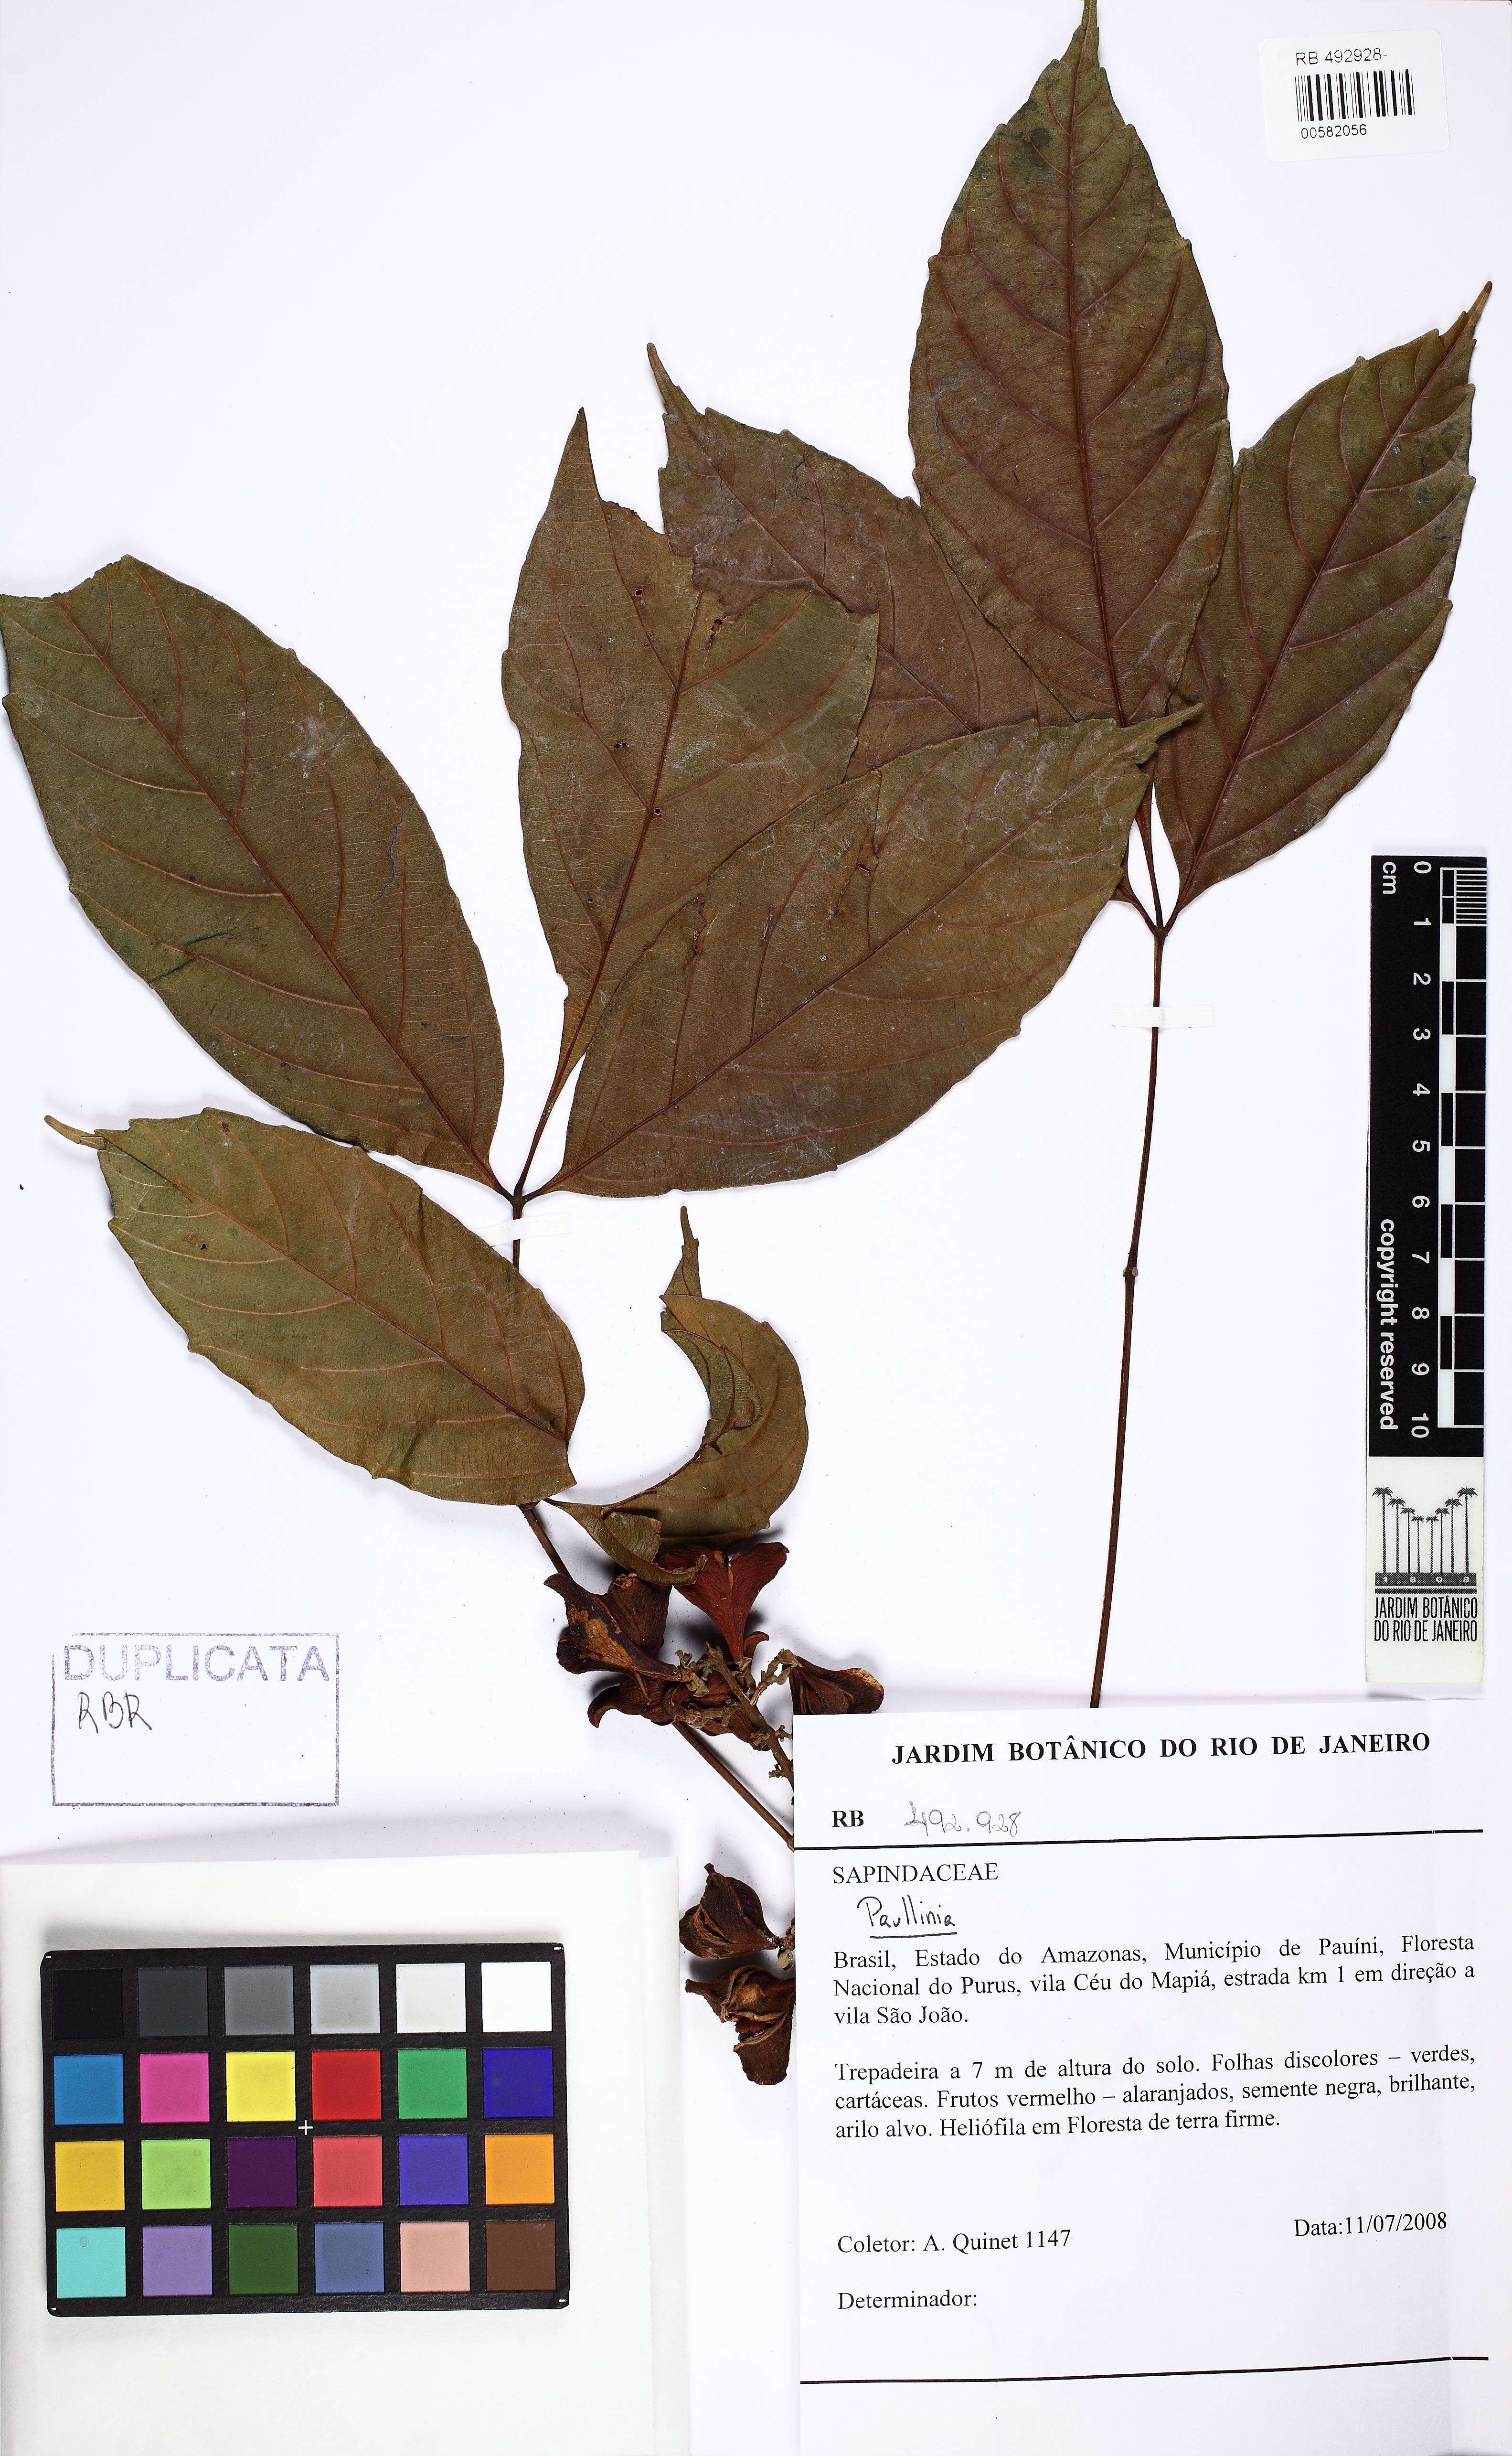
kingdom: Plantae
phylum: Tracheophyta
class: Magnoliopsida
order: Sapindales
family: Sapindaceae
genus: Paullinia
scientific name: Paullinia tricornis
